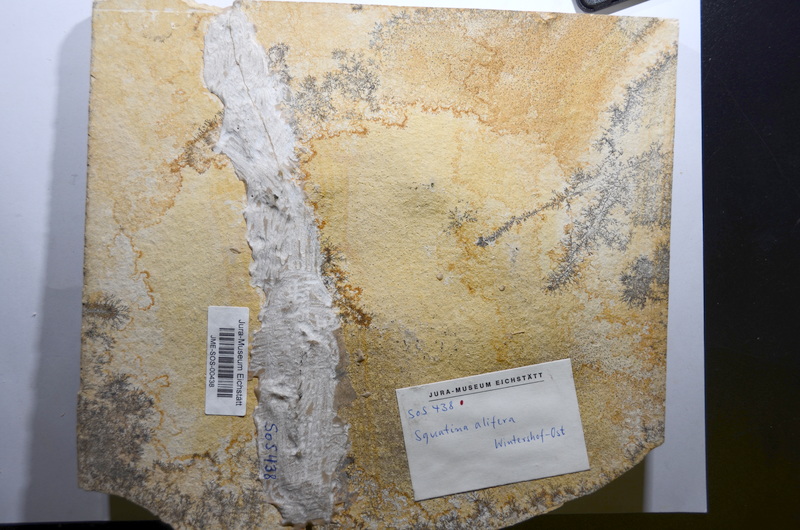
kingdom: Animalia
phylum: Chordata
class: Elasmobranchii
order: Squatiniformes
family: Pseudorhinidae
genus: Pseudorhina
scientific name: Pseudorhina alifera
